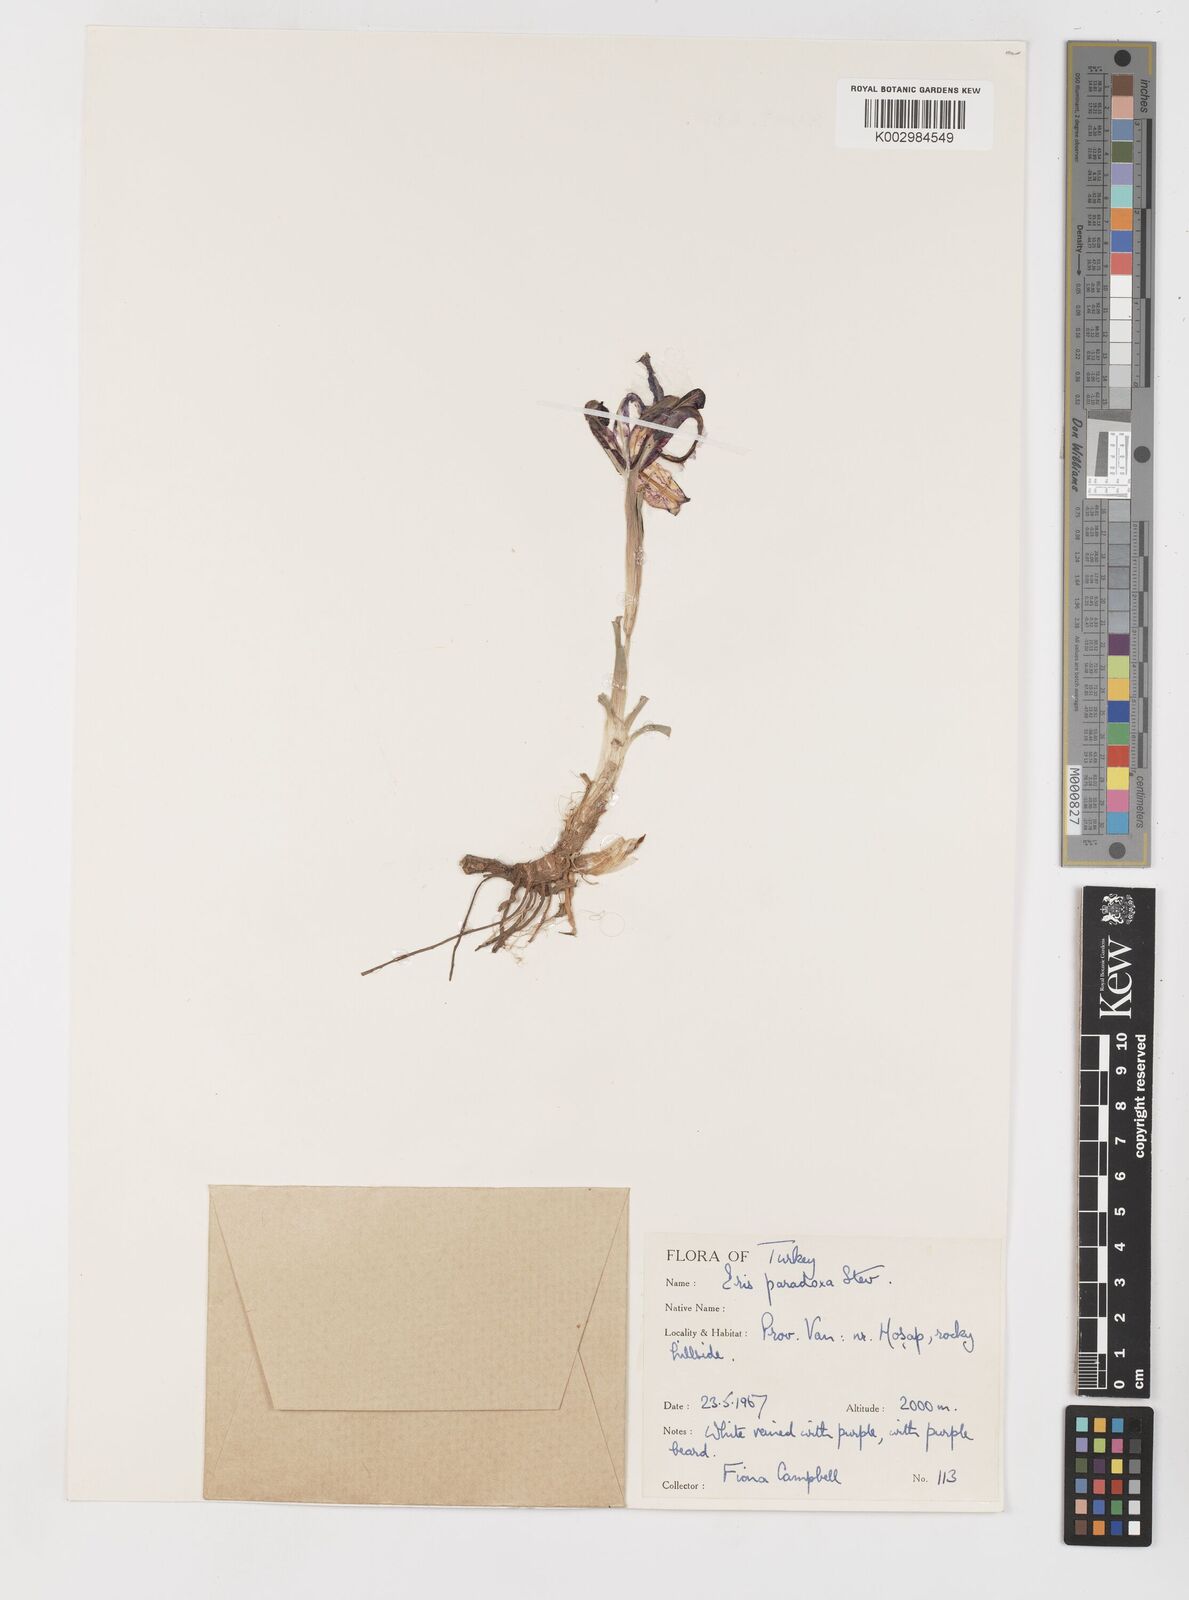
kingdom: Plantae
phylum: Tracheophyta
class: Liliopsida
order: Asparagales
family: Iridaceae
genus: Iris
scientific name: Iris paradoxa
